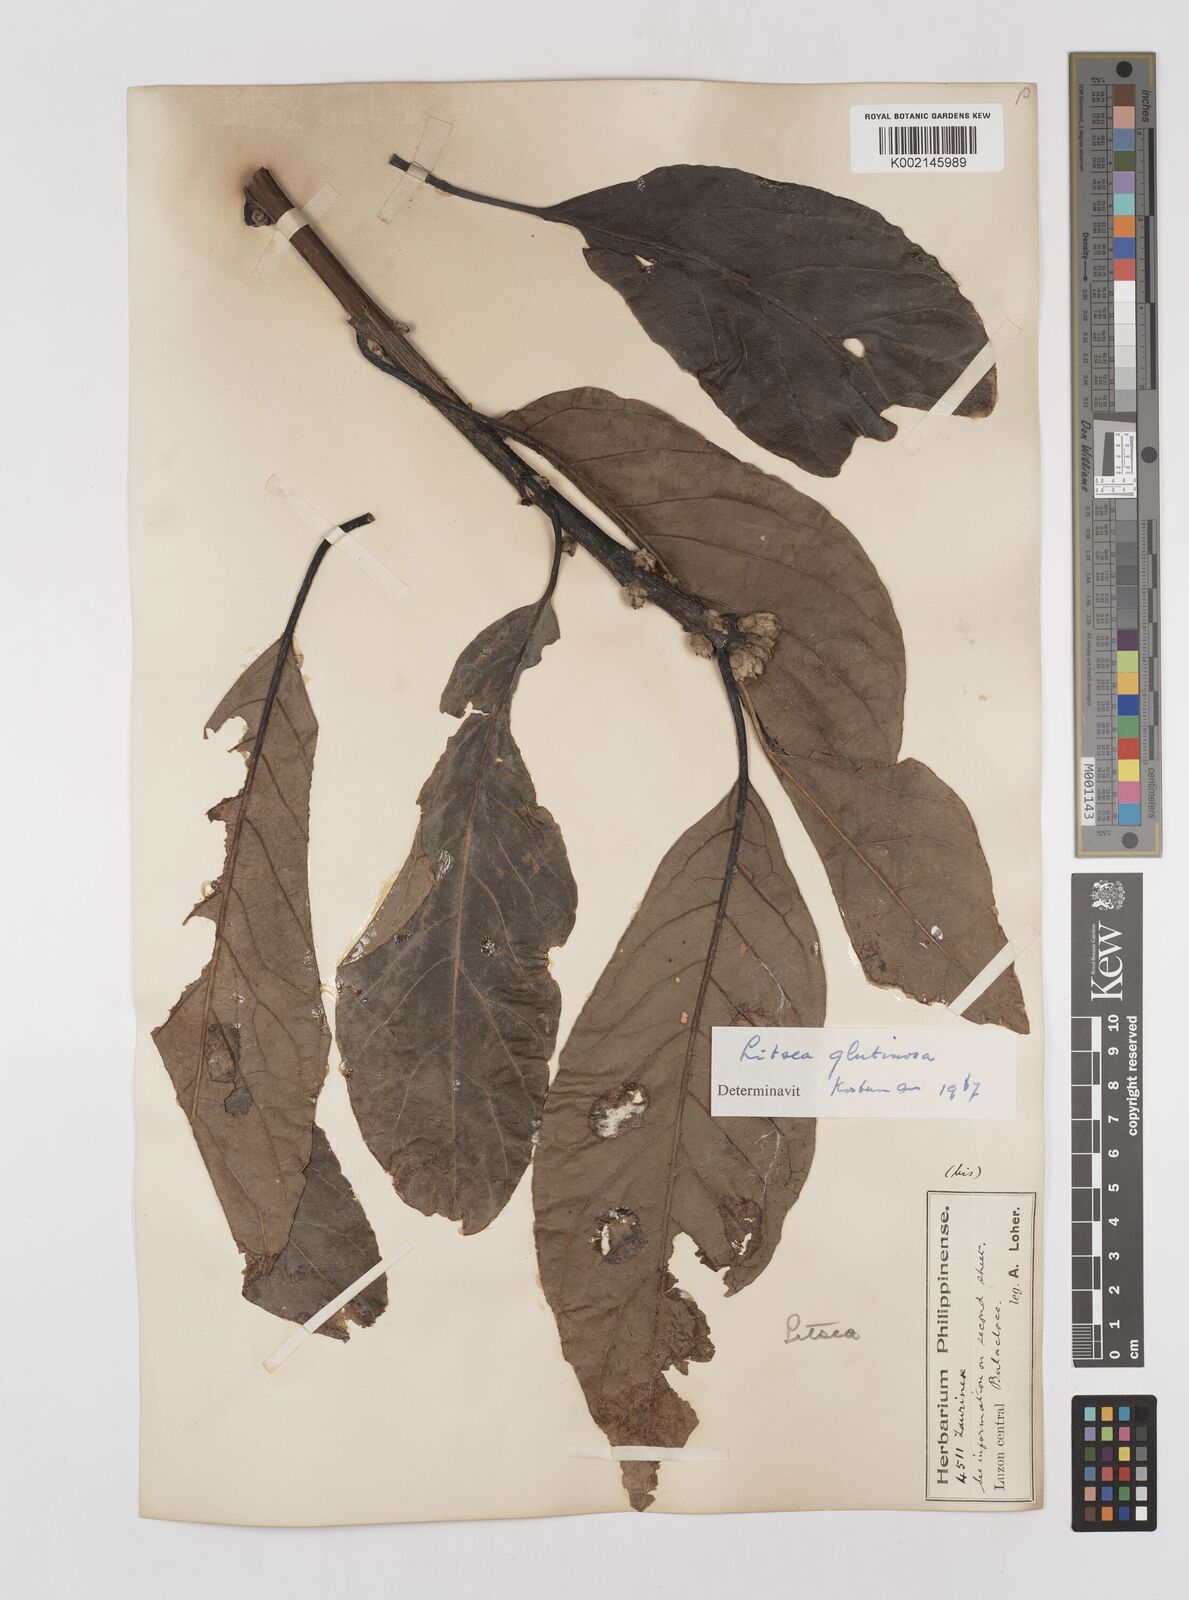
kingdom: Plantae
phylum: Tracheophyta
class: Magnoliopsida
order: Laurales
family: Lauraceae
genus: Litsea
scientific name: Litsea glutinosa
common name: Indian-laurel
